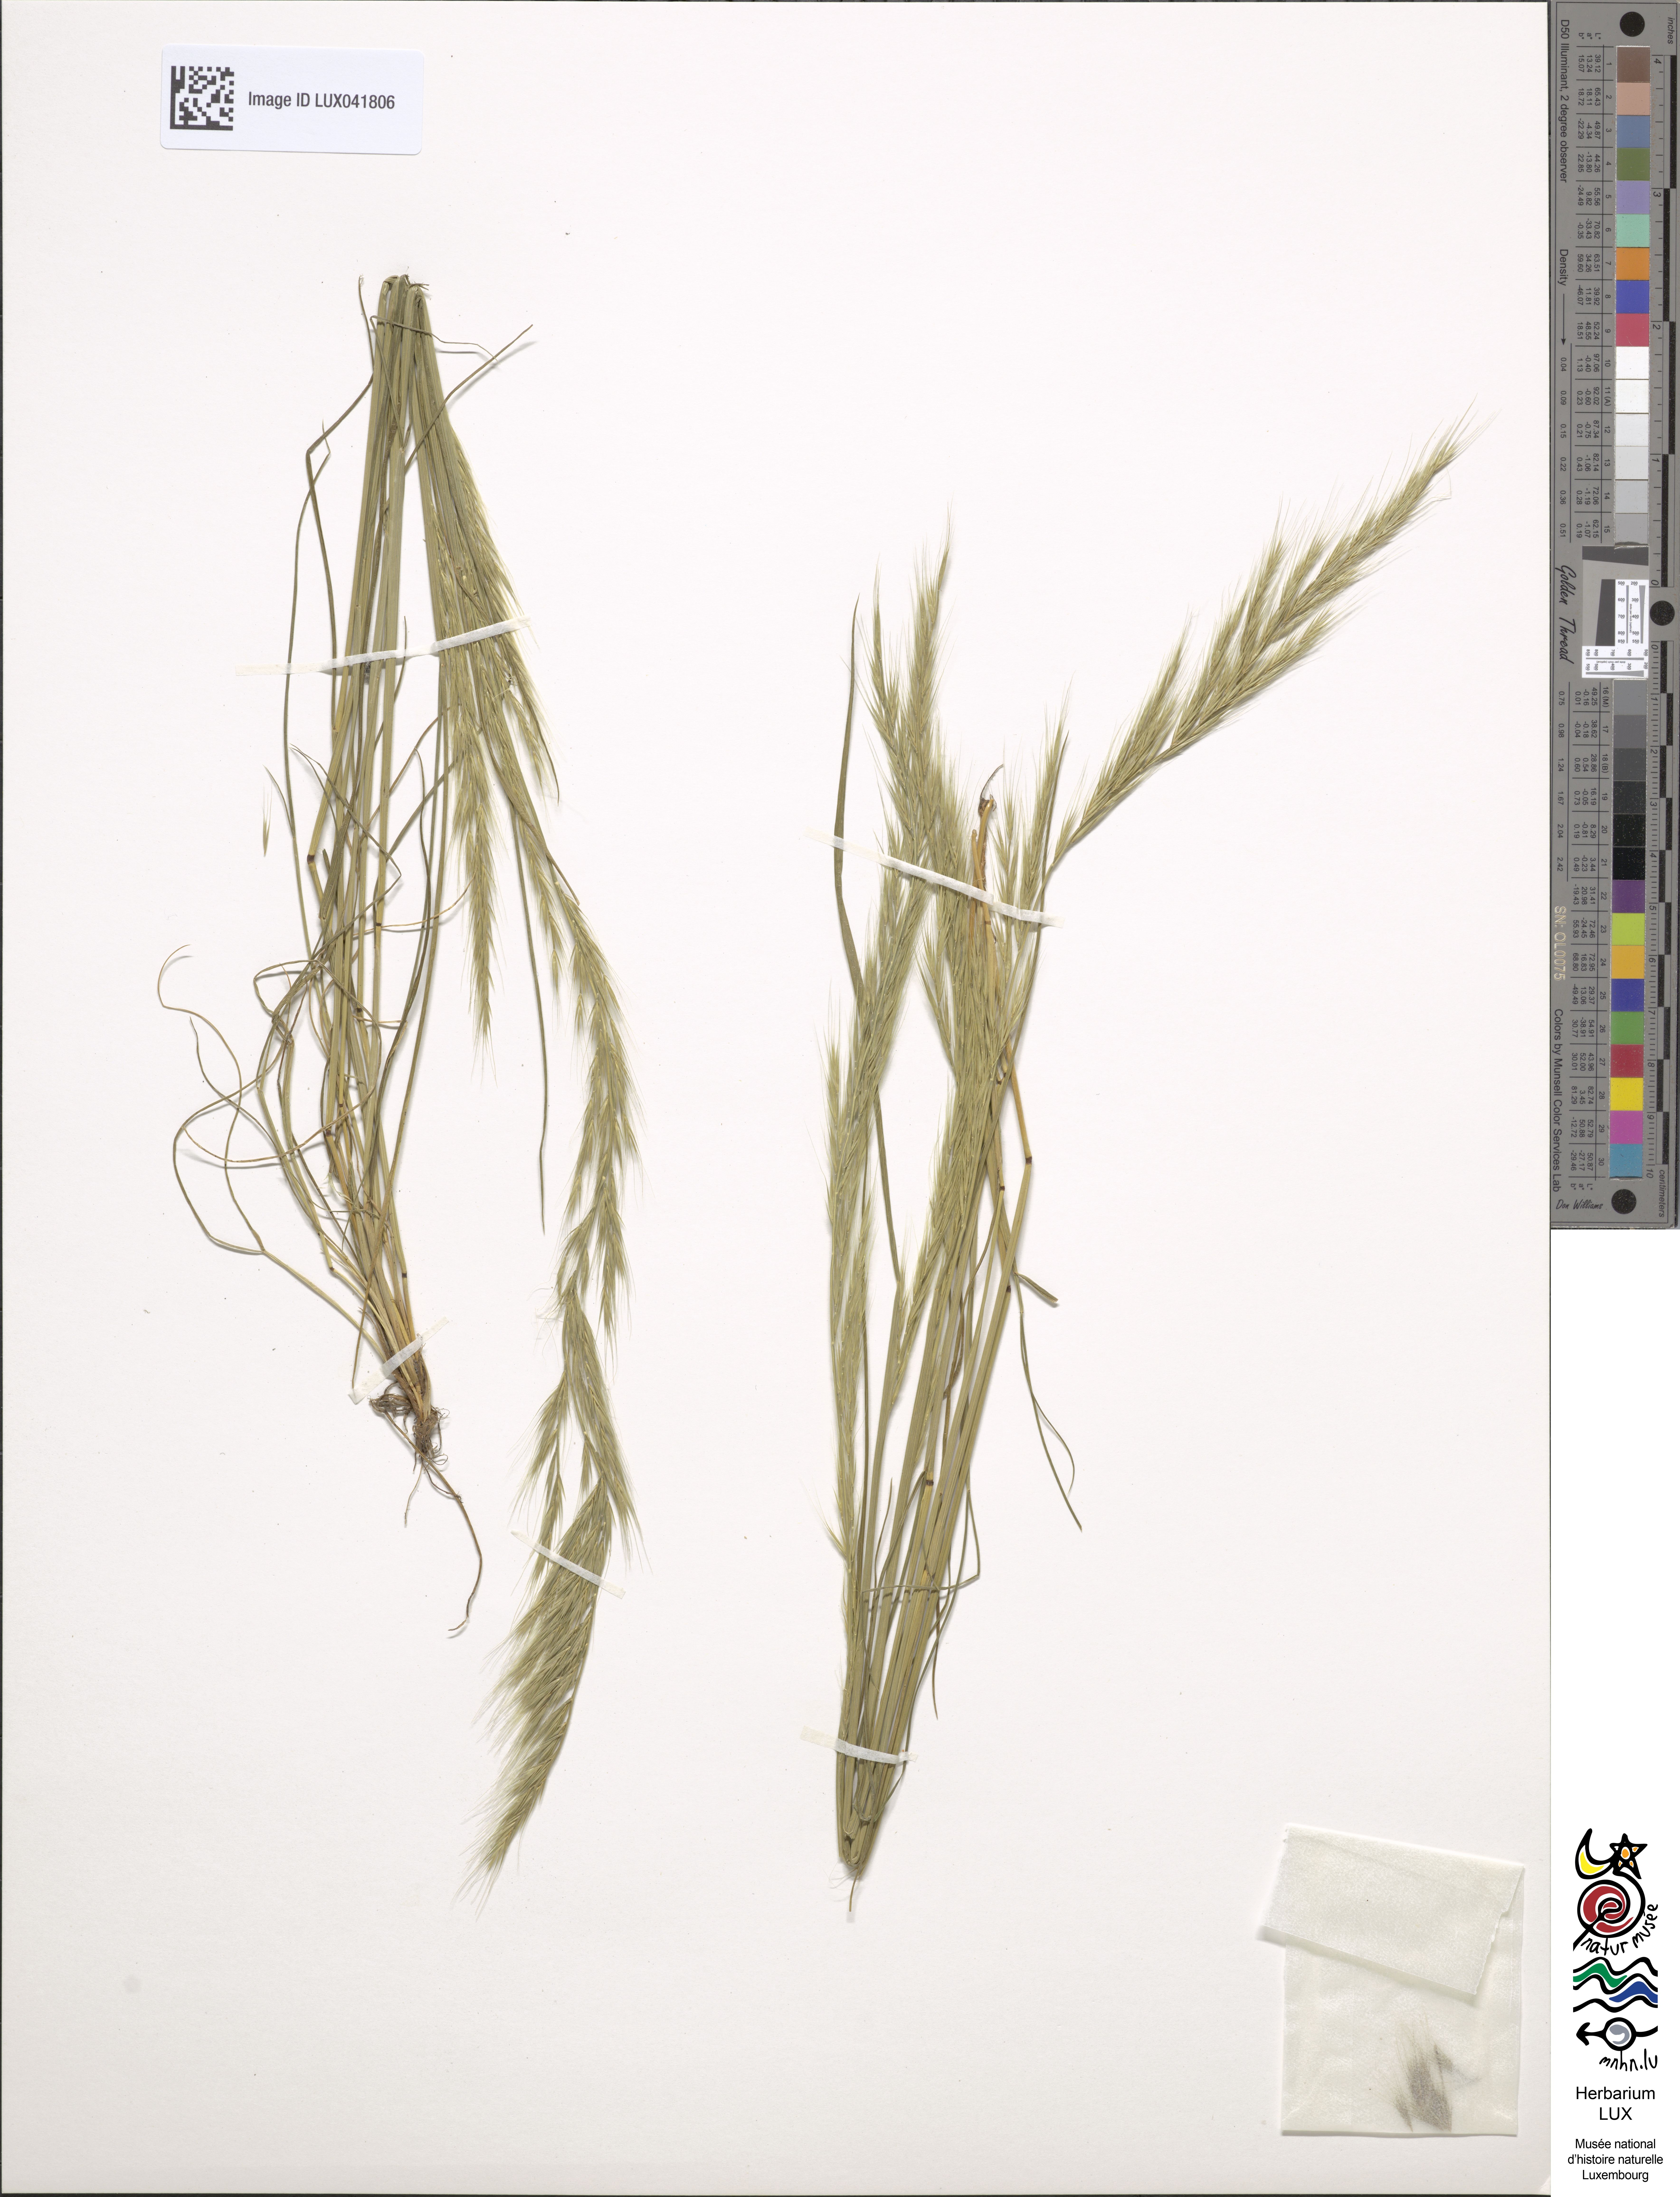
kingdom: Plantae
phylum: Tracheophyta
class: Liliopsida
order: Poales
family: Poaceae
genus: Festuca
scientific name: Festuca myuros
